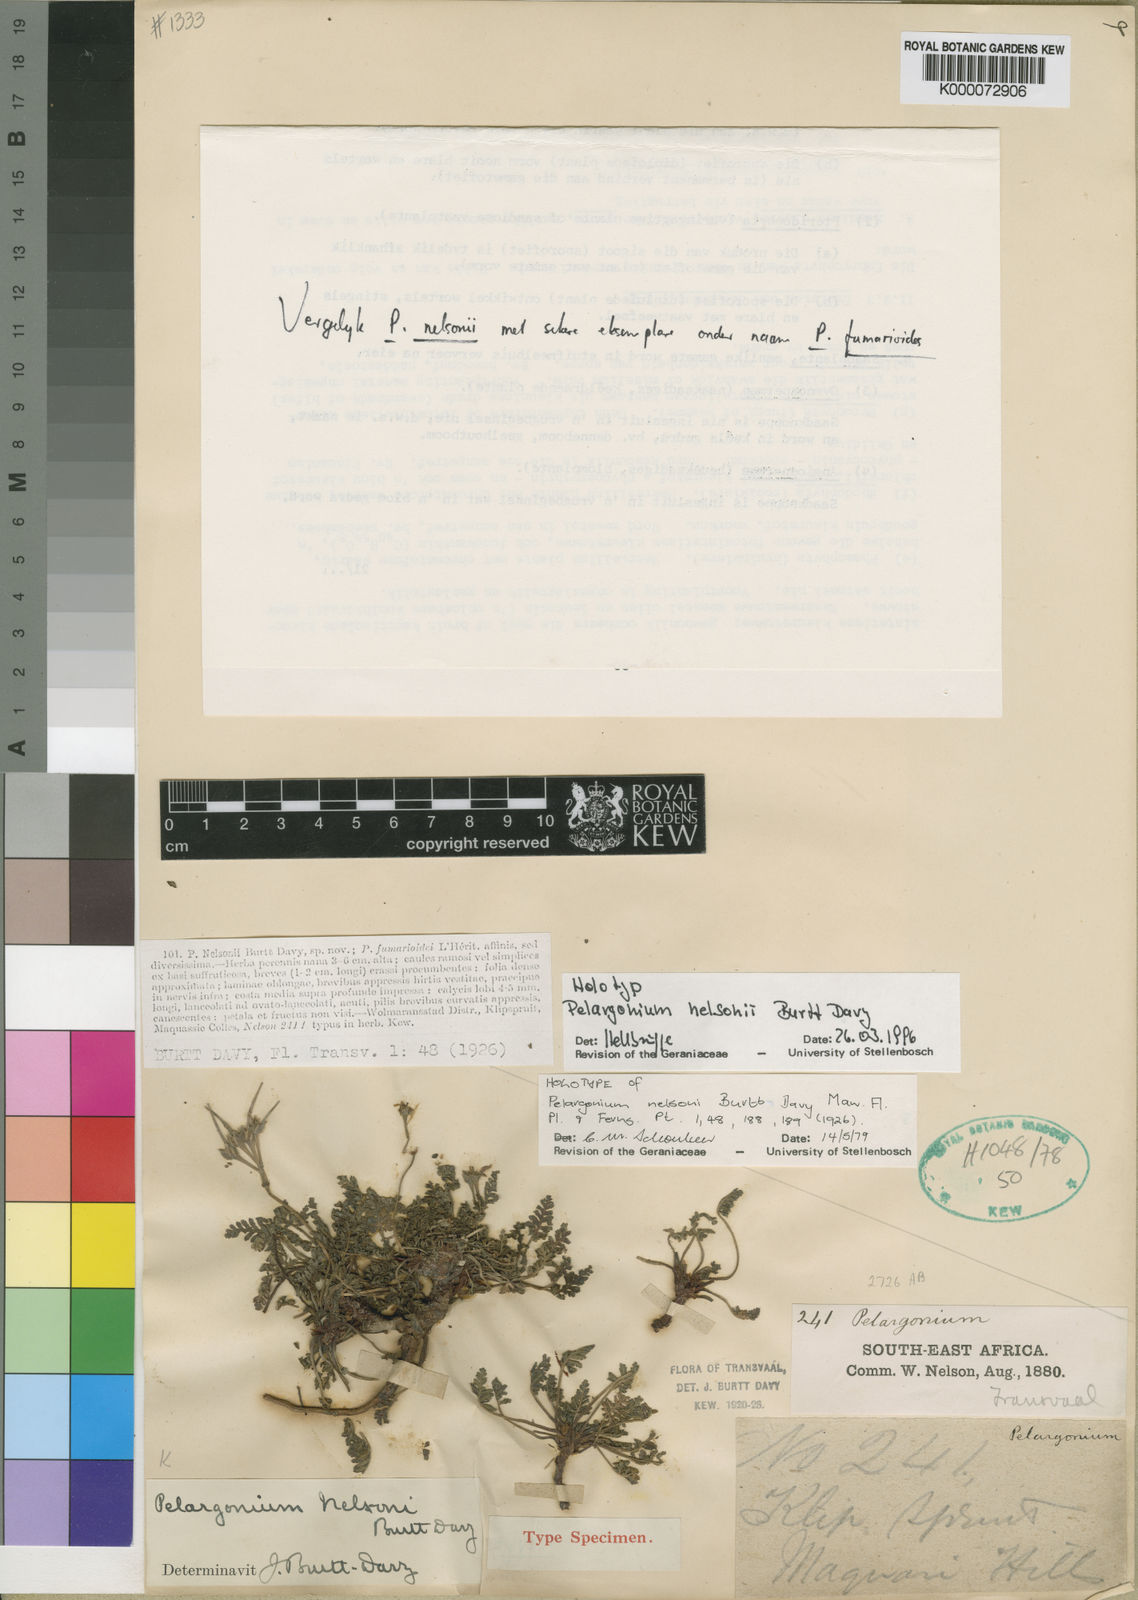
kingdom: Plantae
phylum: Tracheophyta
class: Magnoliopsida
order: Geraniales
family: Geraniaceae
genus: Pelargonium
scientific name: Pelargonium nelsonii
